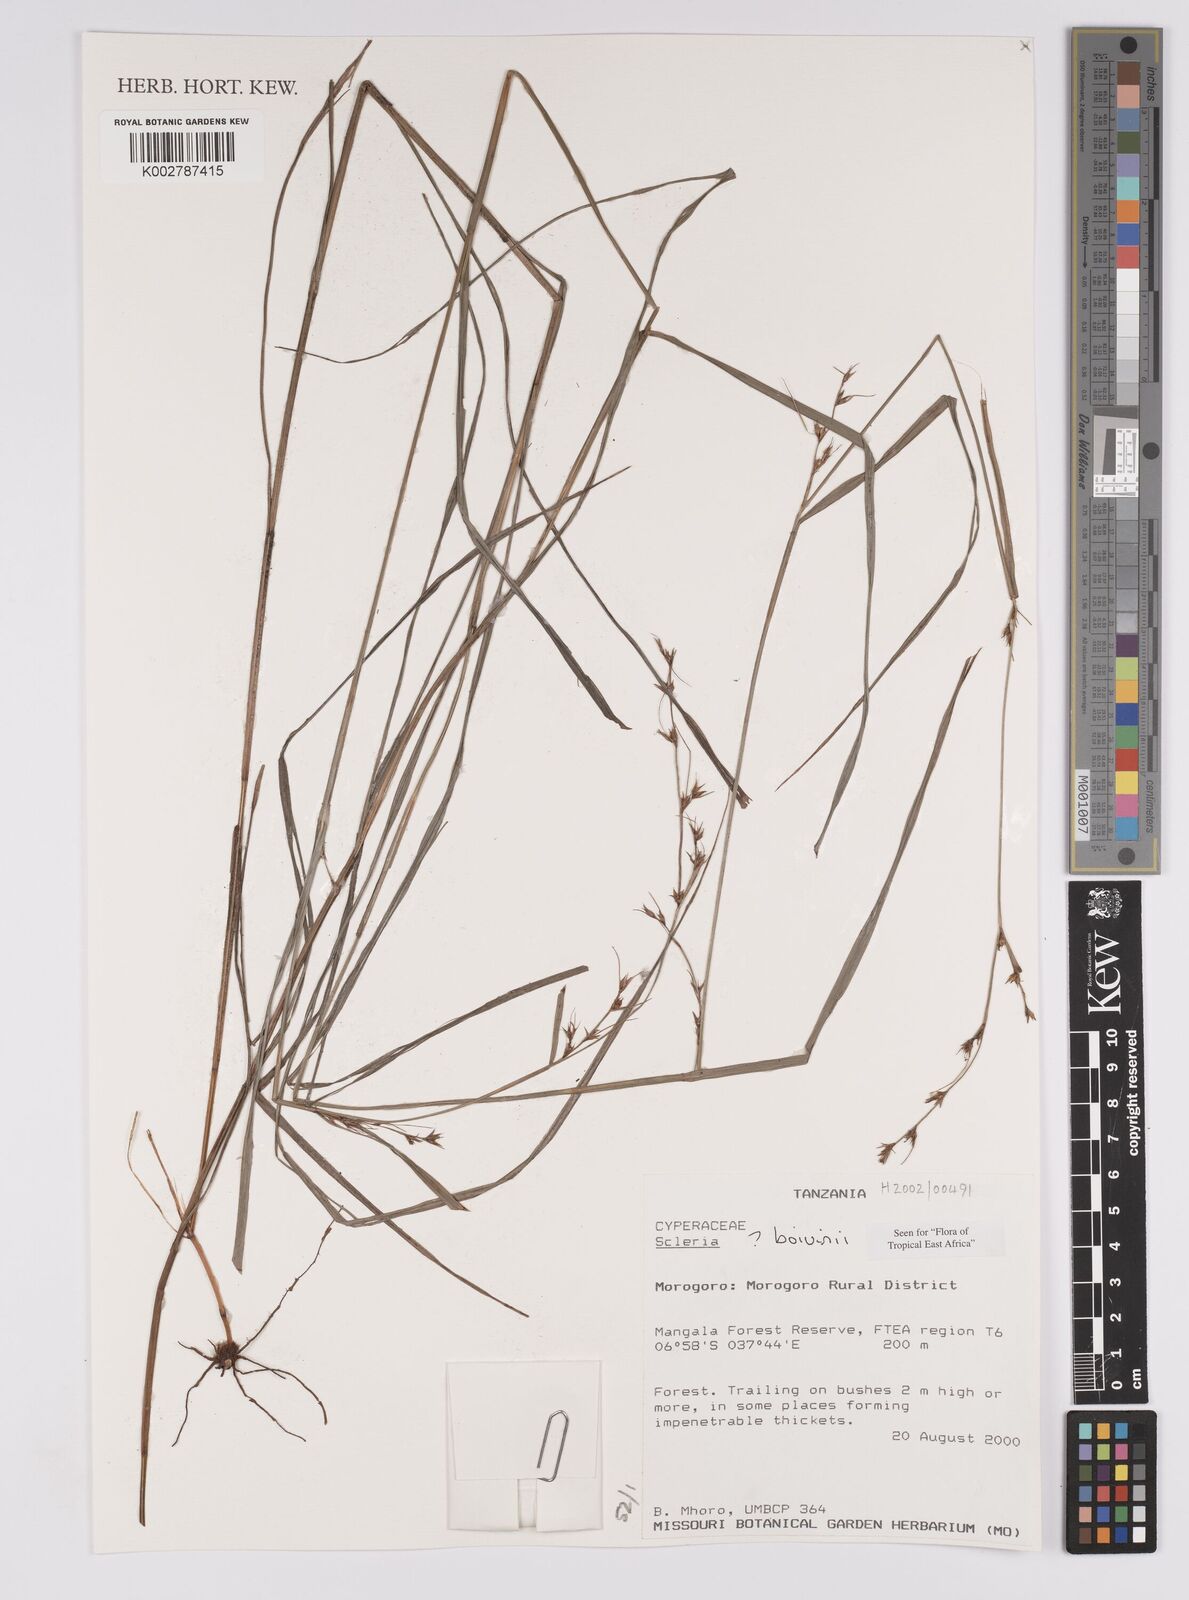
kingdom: Plantae
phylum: Tracheophyta
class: Liliopsida
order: Poales
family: Cyperaceae
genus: Scleria
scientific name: Scleria boivinii
